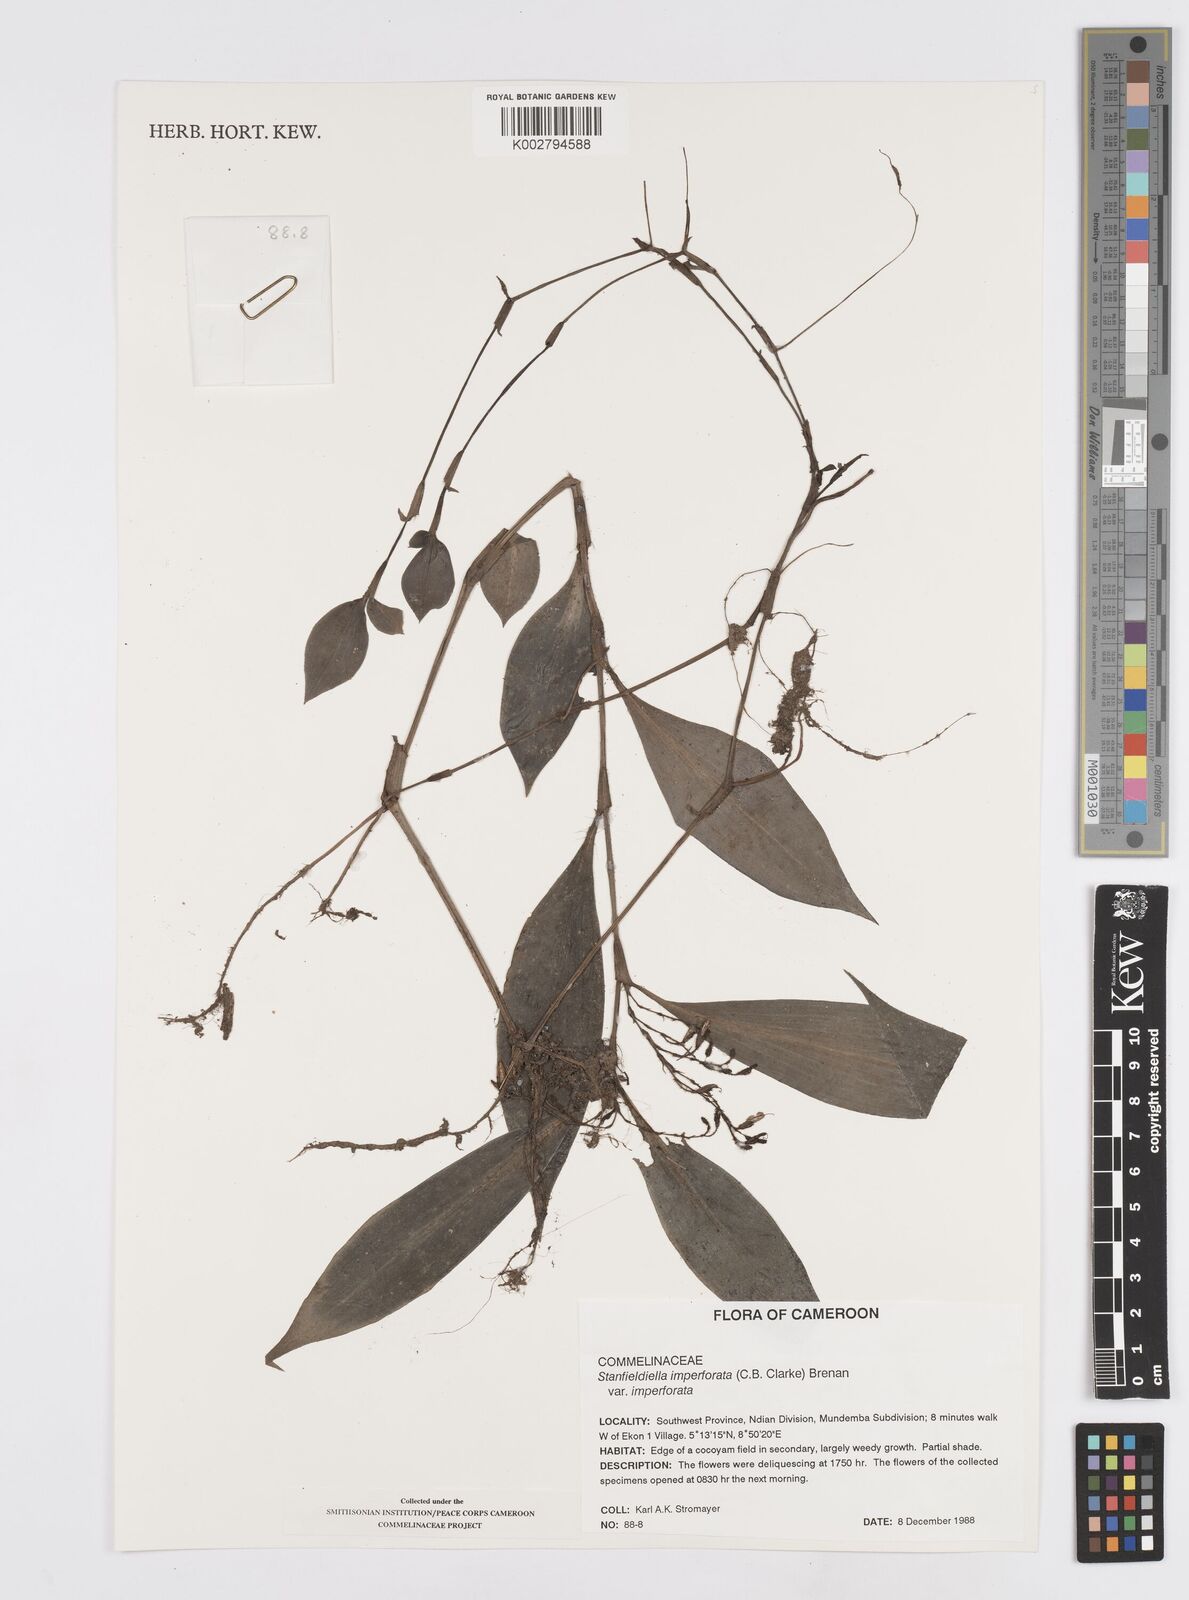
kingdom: Plantae
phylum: Tracheophyta
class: Liliopsida
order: Commelinales
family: Commelinaceae
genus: Stanfieldiella
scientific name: Stanfieldiella imperforata
